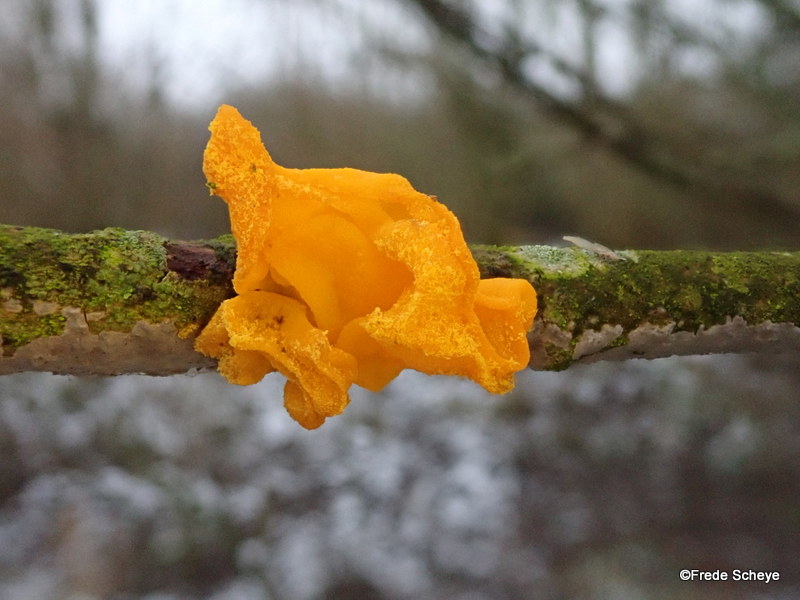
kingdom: Fungi
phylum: Basidiomycota
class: Tremellomycetes
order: Tremellales
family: Tremellaceae
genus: Tremella
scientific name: Tremella mesenterica
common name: gul bævresvamp
